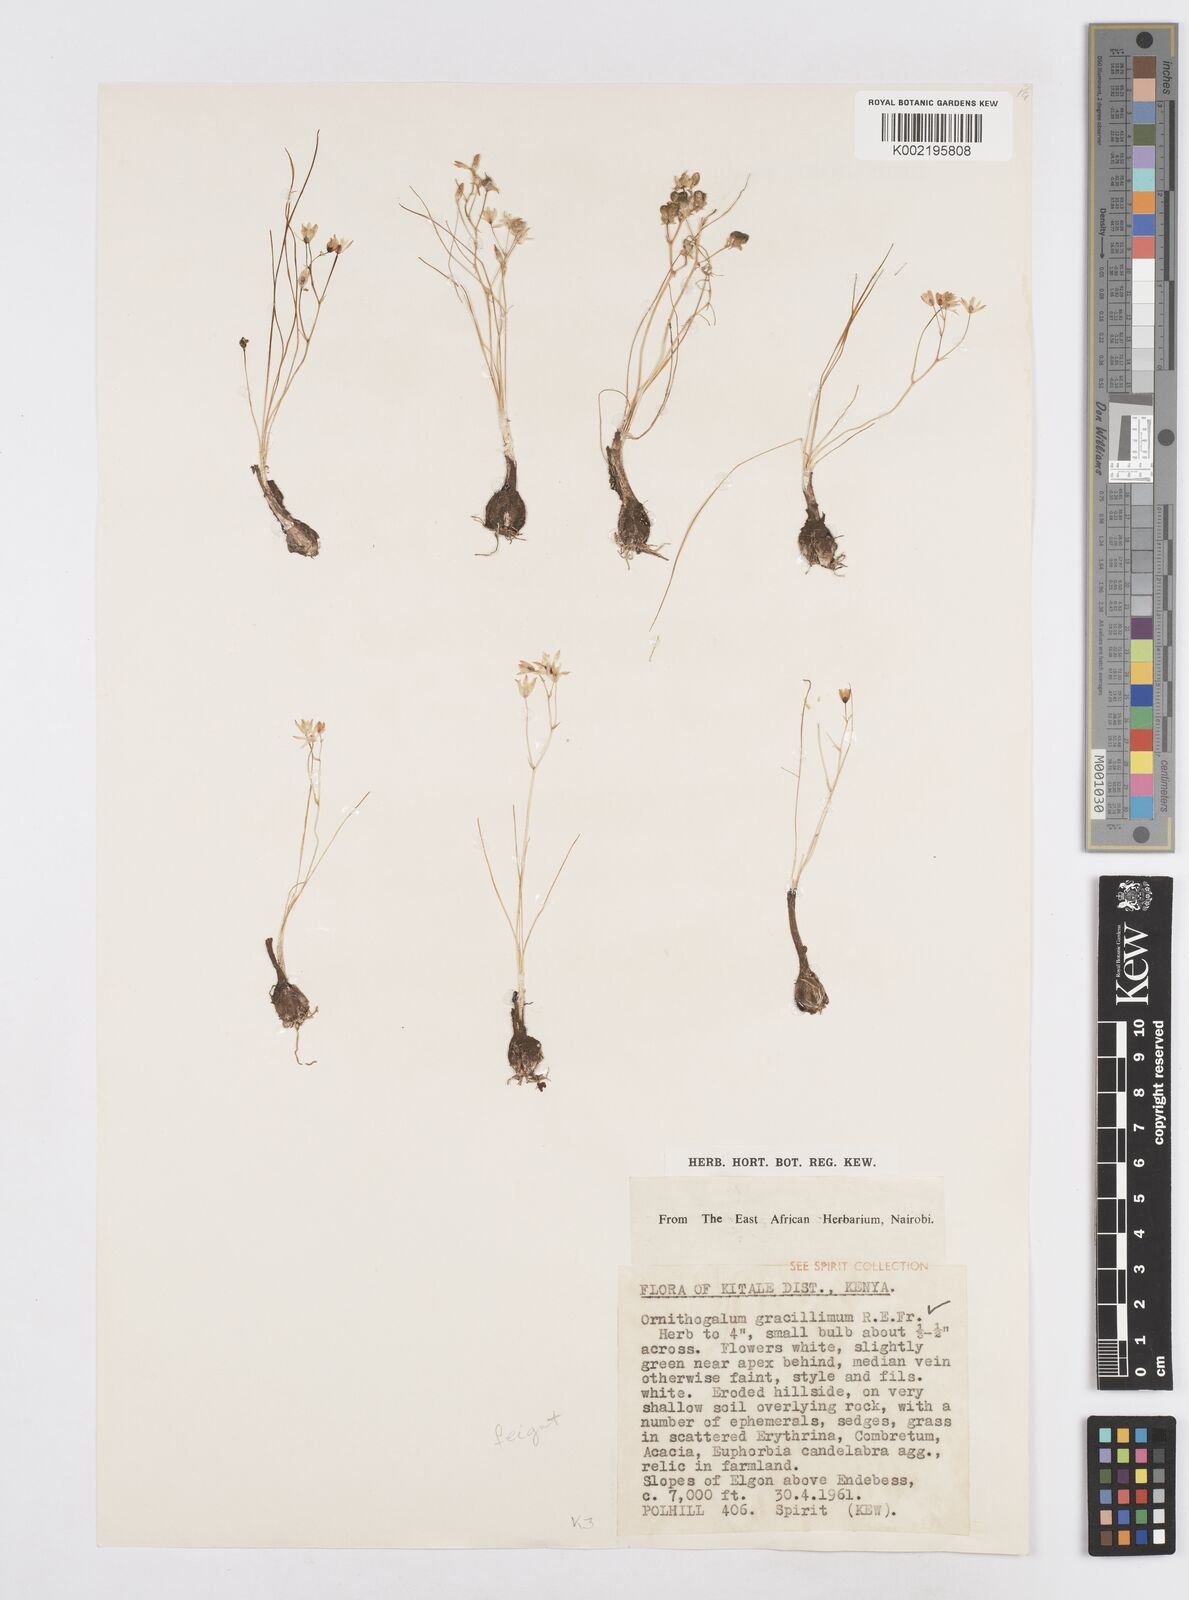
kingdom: Plantae
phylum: Tracheophyta
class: Liliopsida
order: Asparagales
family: Asparagaceae
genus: Ornithogalum
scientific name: Ornithogalum gracillimum
